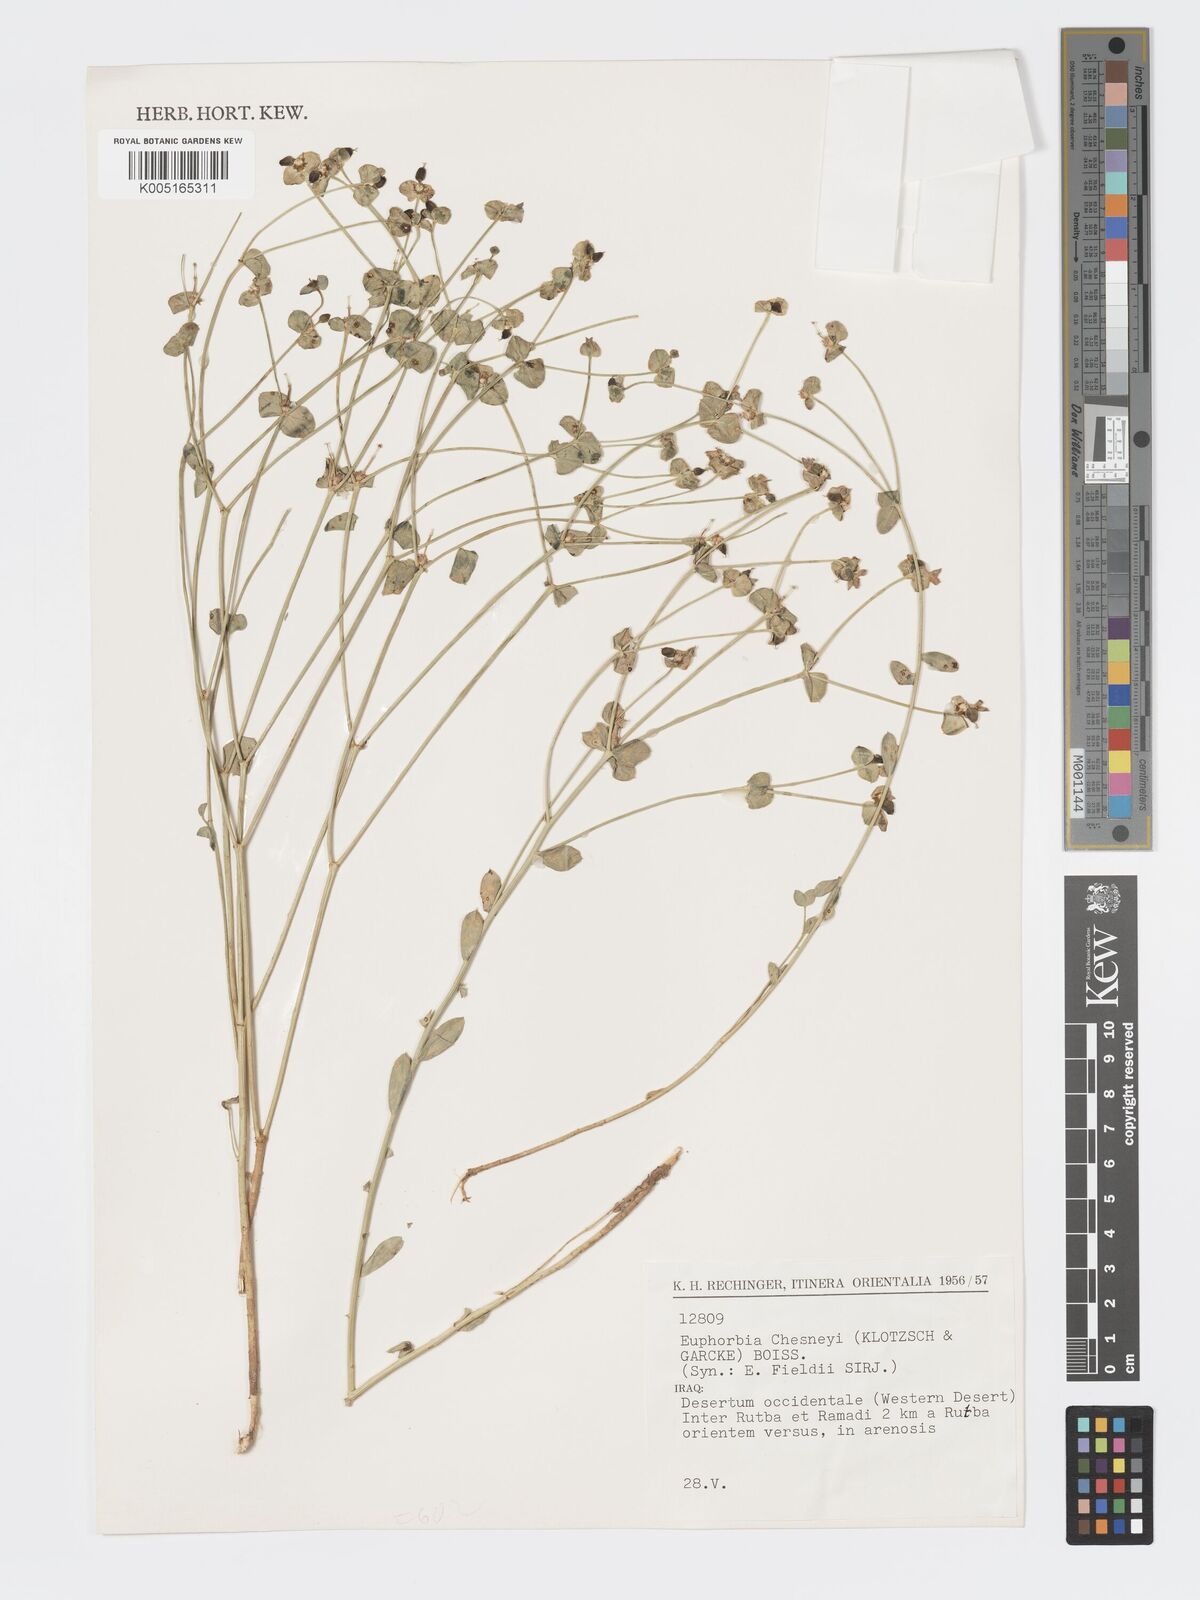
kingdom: Plantae
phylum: Tracheophyta
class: Magnoliopsida
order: Malpighiales
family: Euphorbiaceae
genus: Euphorbia
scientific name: Euphorbia cuspidata
